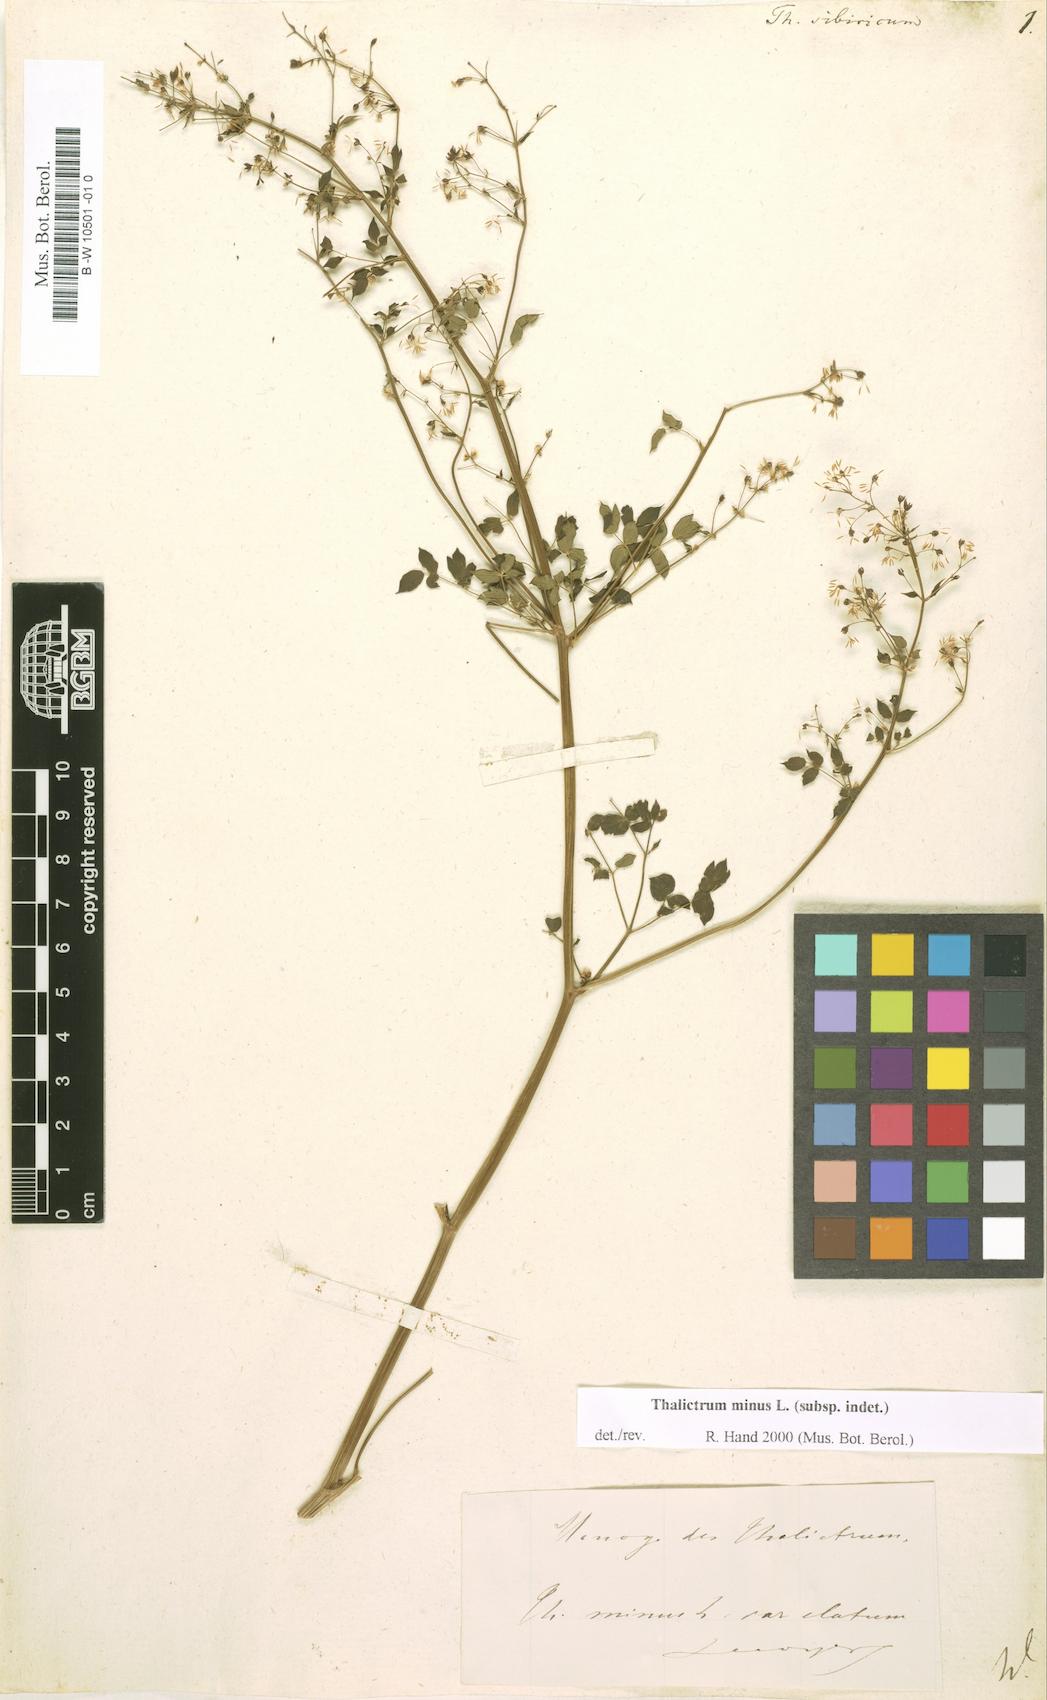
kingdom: Plantae
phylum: Tracheophyta
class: Magnoliopsida
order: Ranunculales
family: Ranunculaceae
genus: Thalictrum
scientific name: Thalictrum
